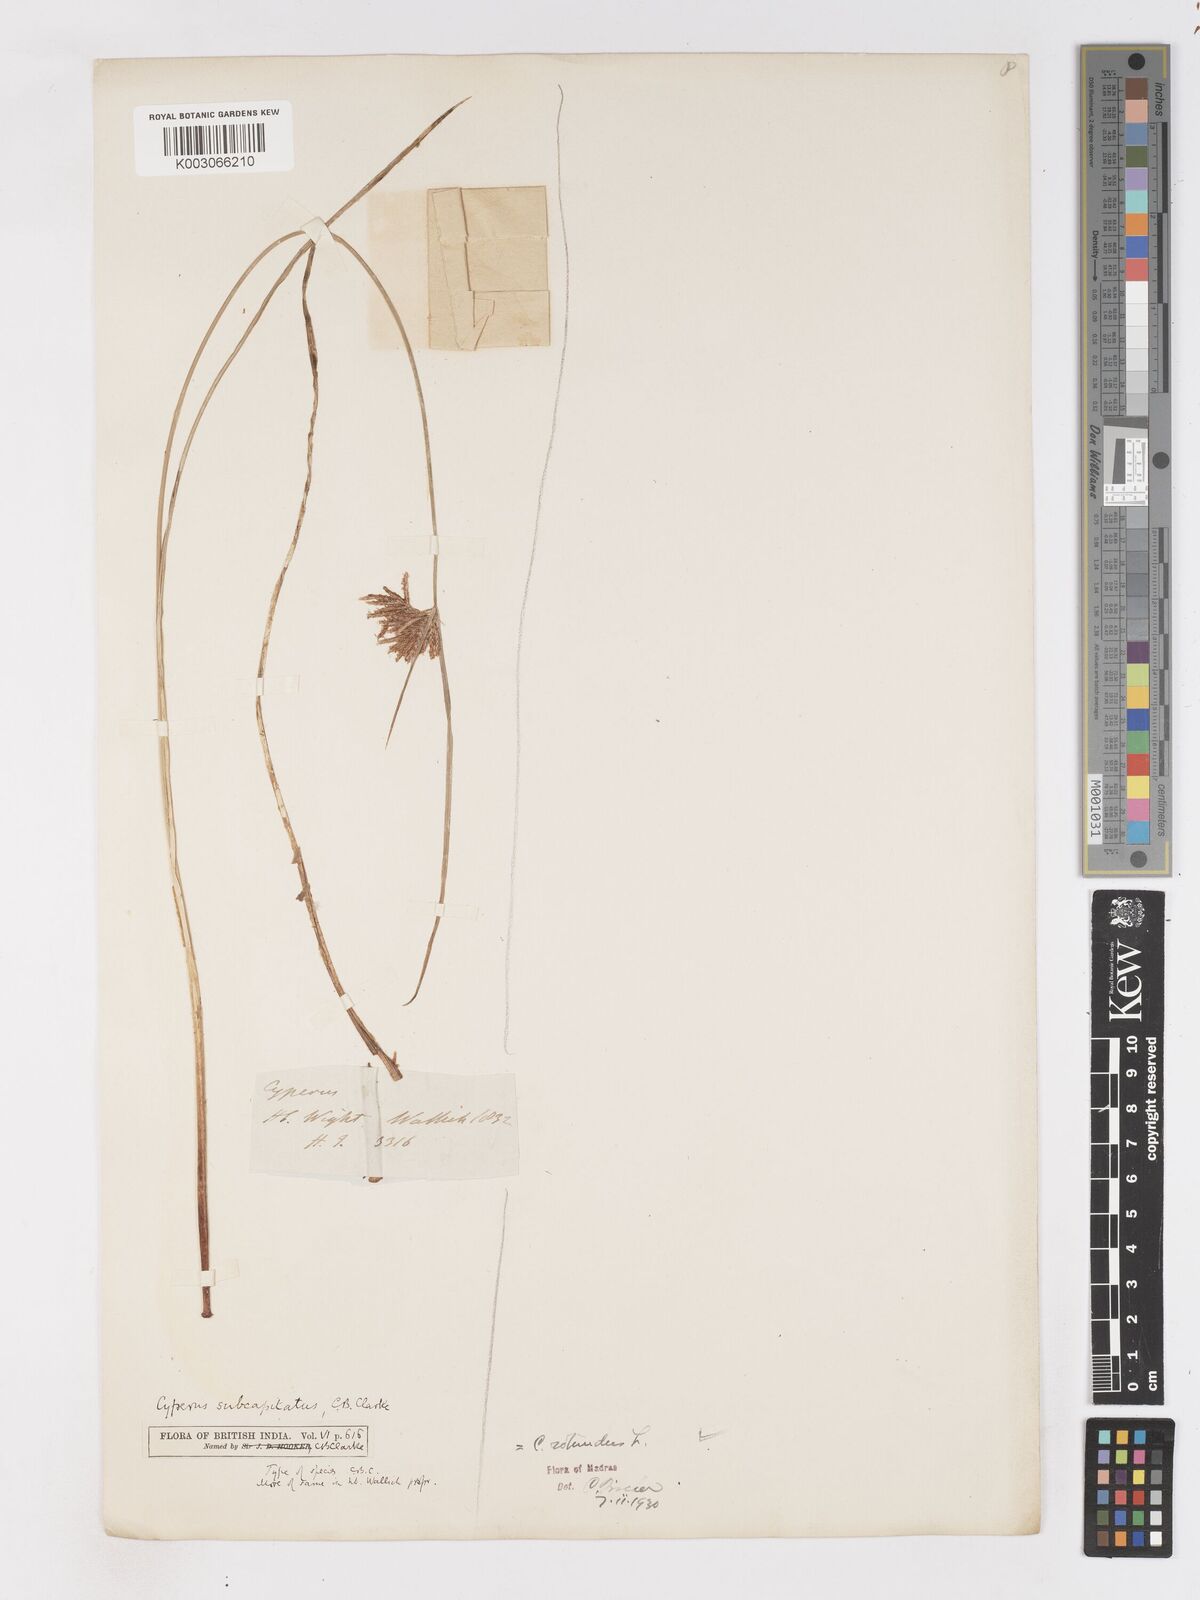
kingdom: Plantae
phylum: Tracheophyta
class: Liliopsida
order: Poales
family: Cyperaceae
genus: Cyperus
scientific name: Cyperus rotundus
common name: Nutgrass
